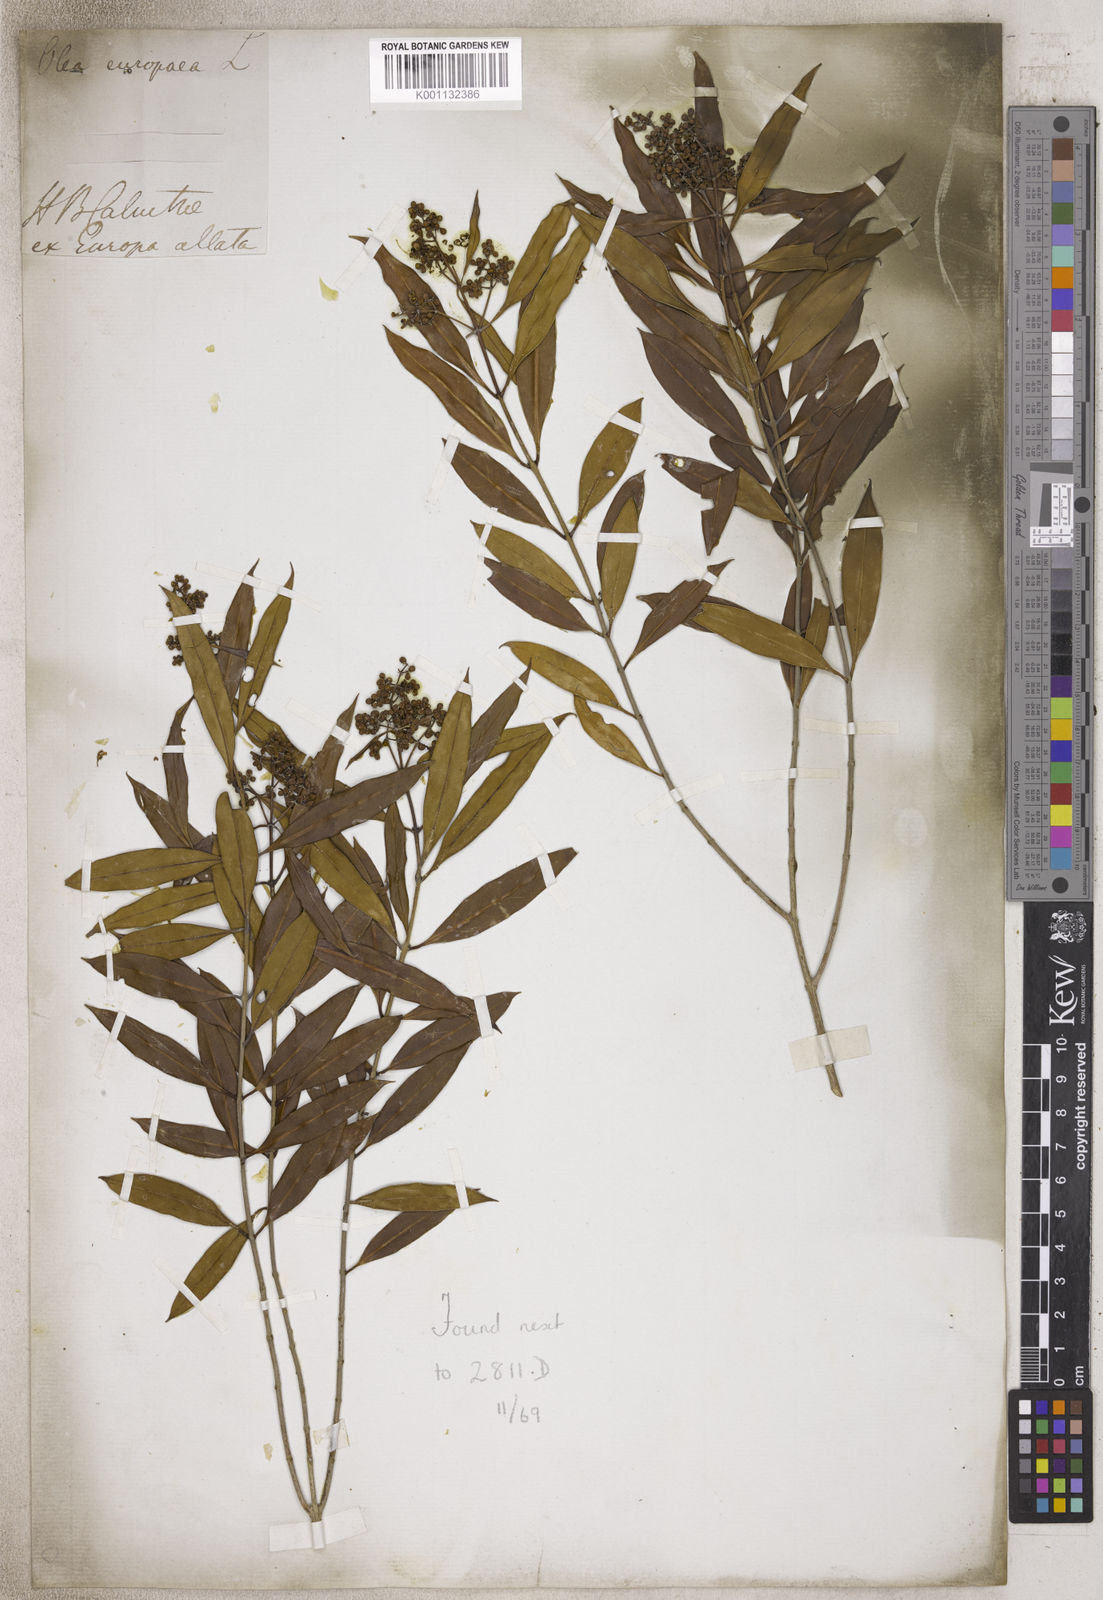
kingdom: Plantae
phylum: Tracheophyta
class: Magnoliopsida
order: Lamiales
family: Oleaceae
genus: Olea
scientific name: Olea
